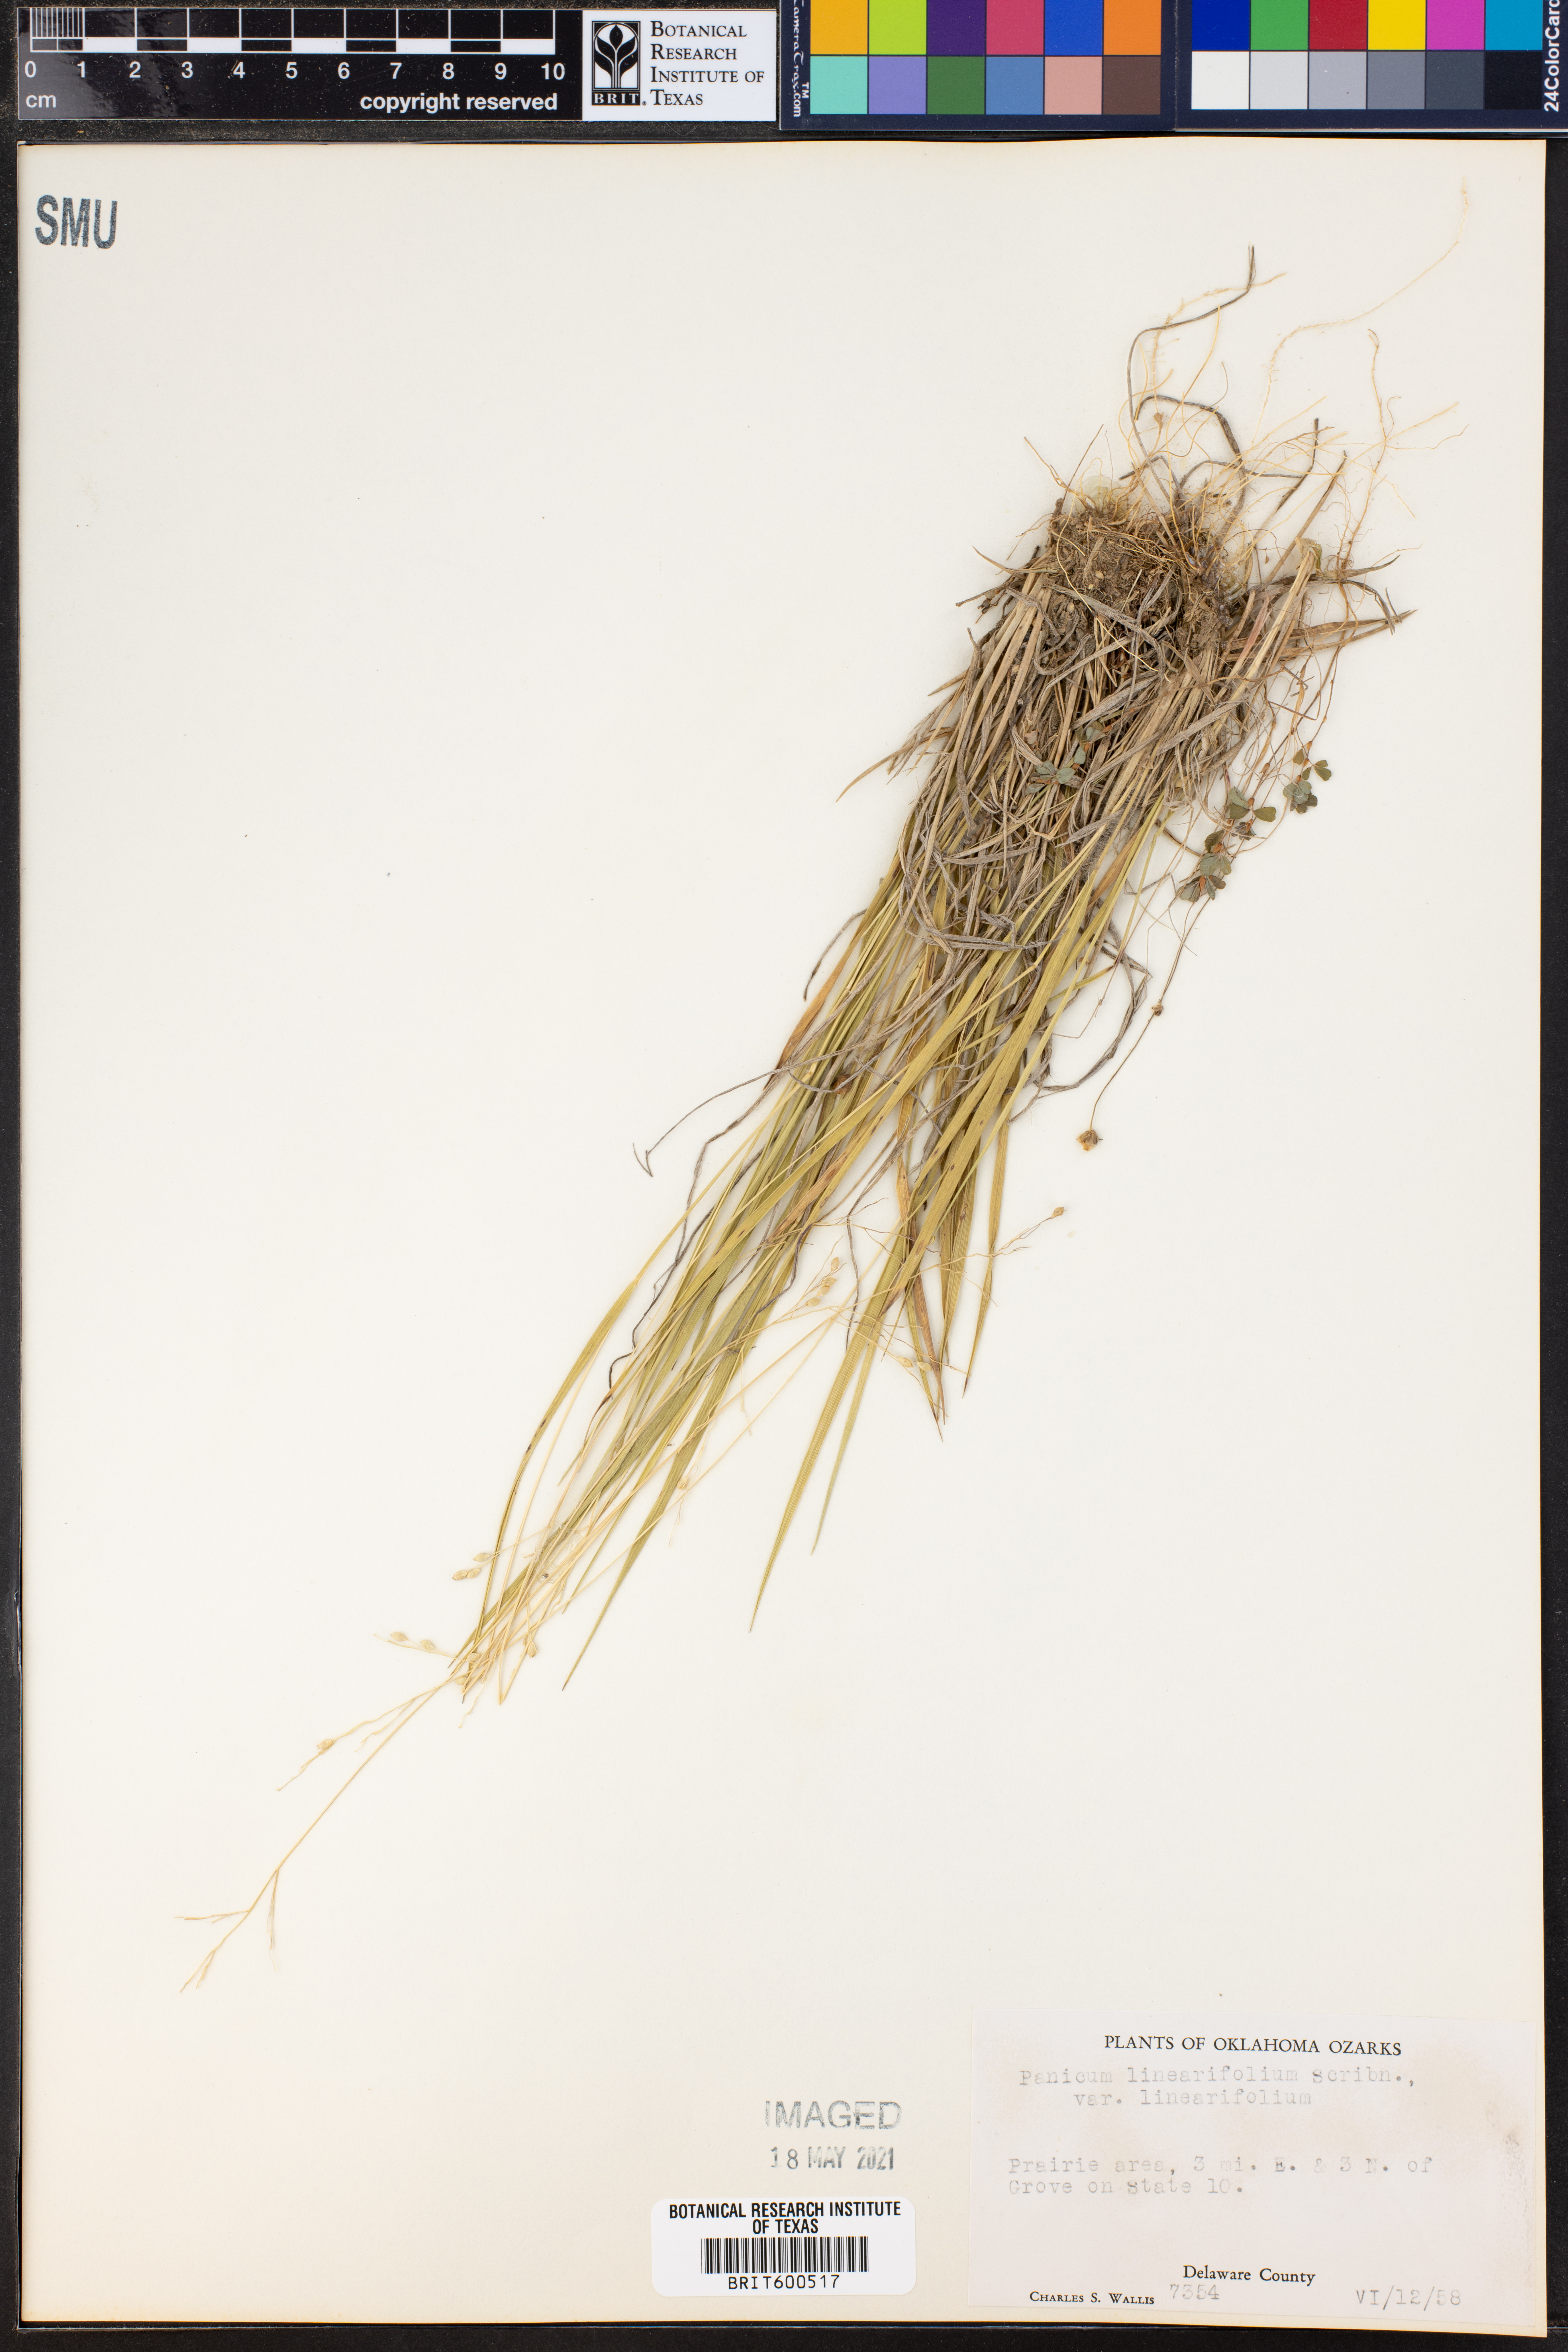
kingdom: Plantae
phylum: Tracheophyta
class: Liliopsida
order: Poales
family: Poaceae
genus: Dichanthelium
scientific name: Dichanthelium linearifolium
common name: Linear-leaved panicgrass
